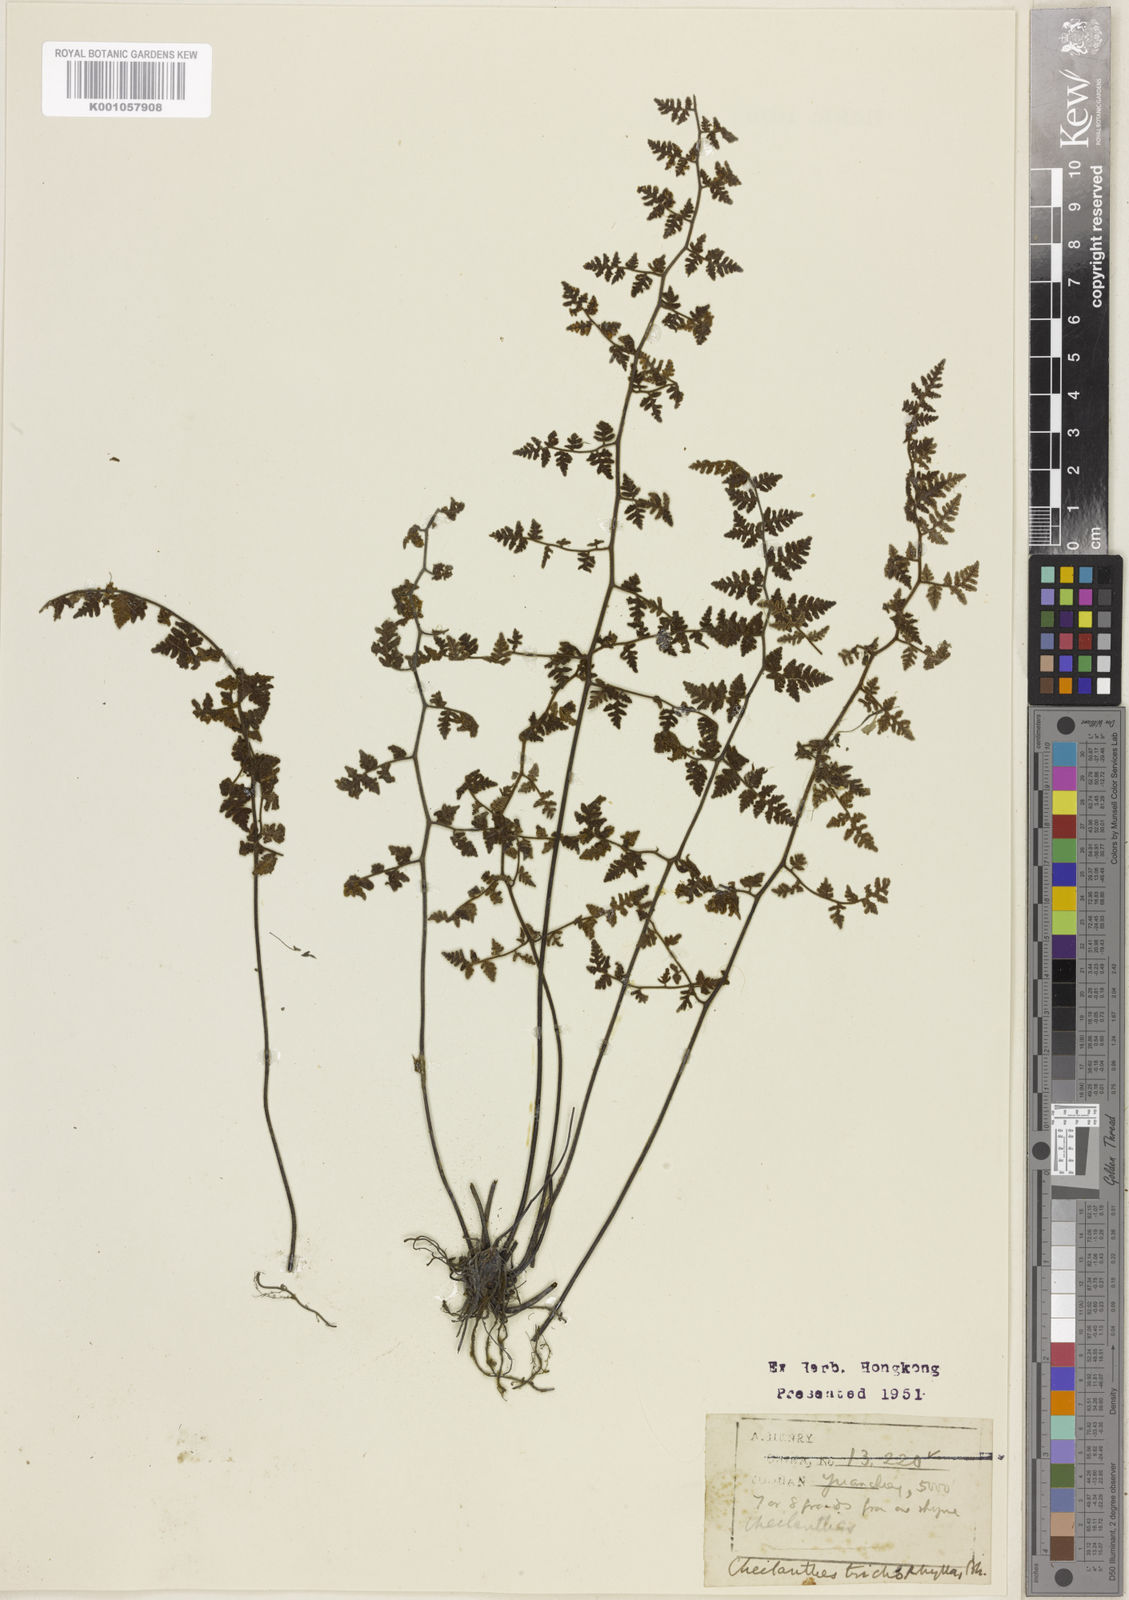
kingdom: Plantae
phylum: Tracheophyta
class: Polypodiopsida
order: Polypodiales
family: Pteridaceae
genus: Oeosporangium
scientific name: Oeosporangium trichophyllum
